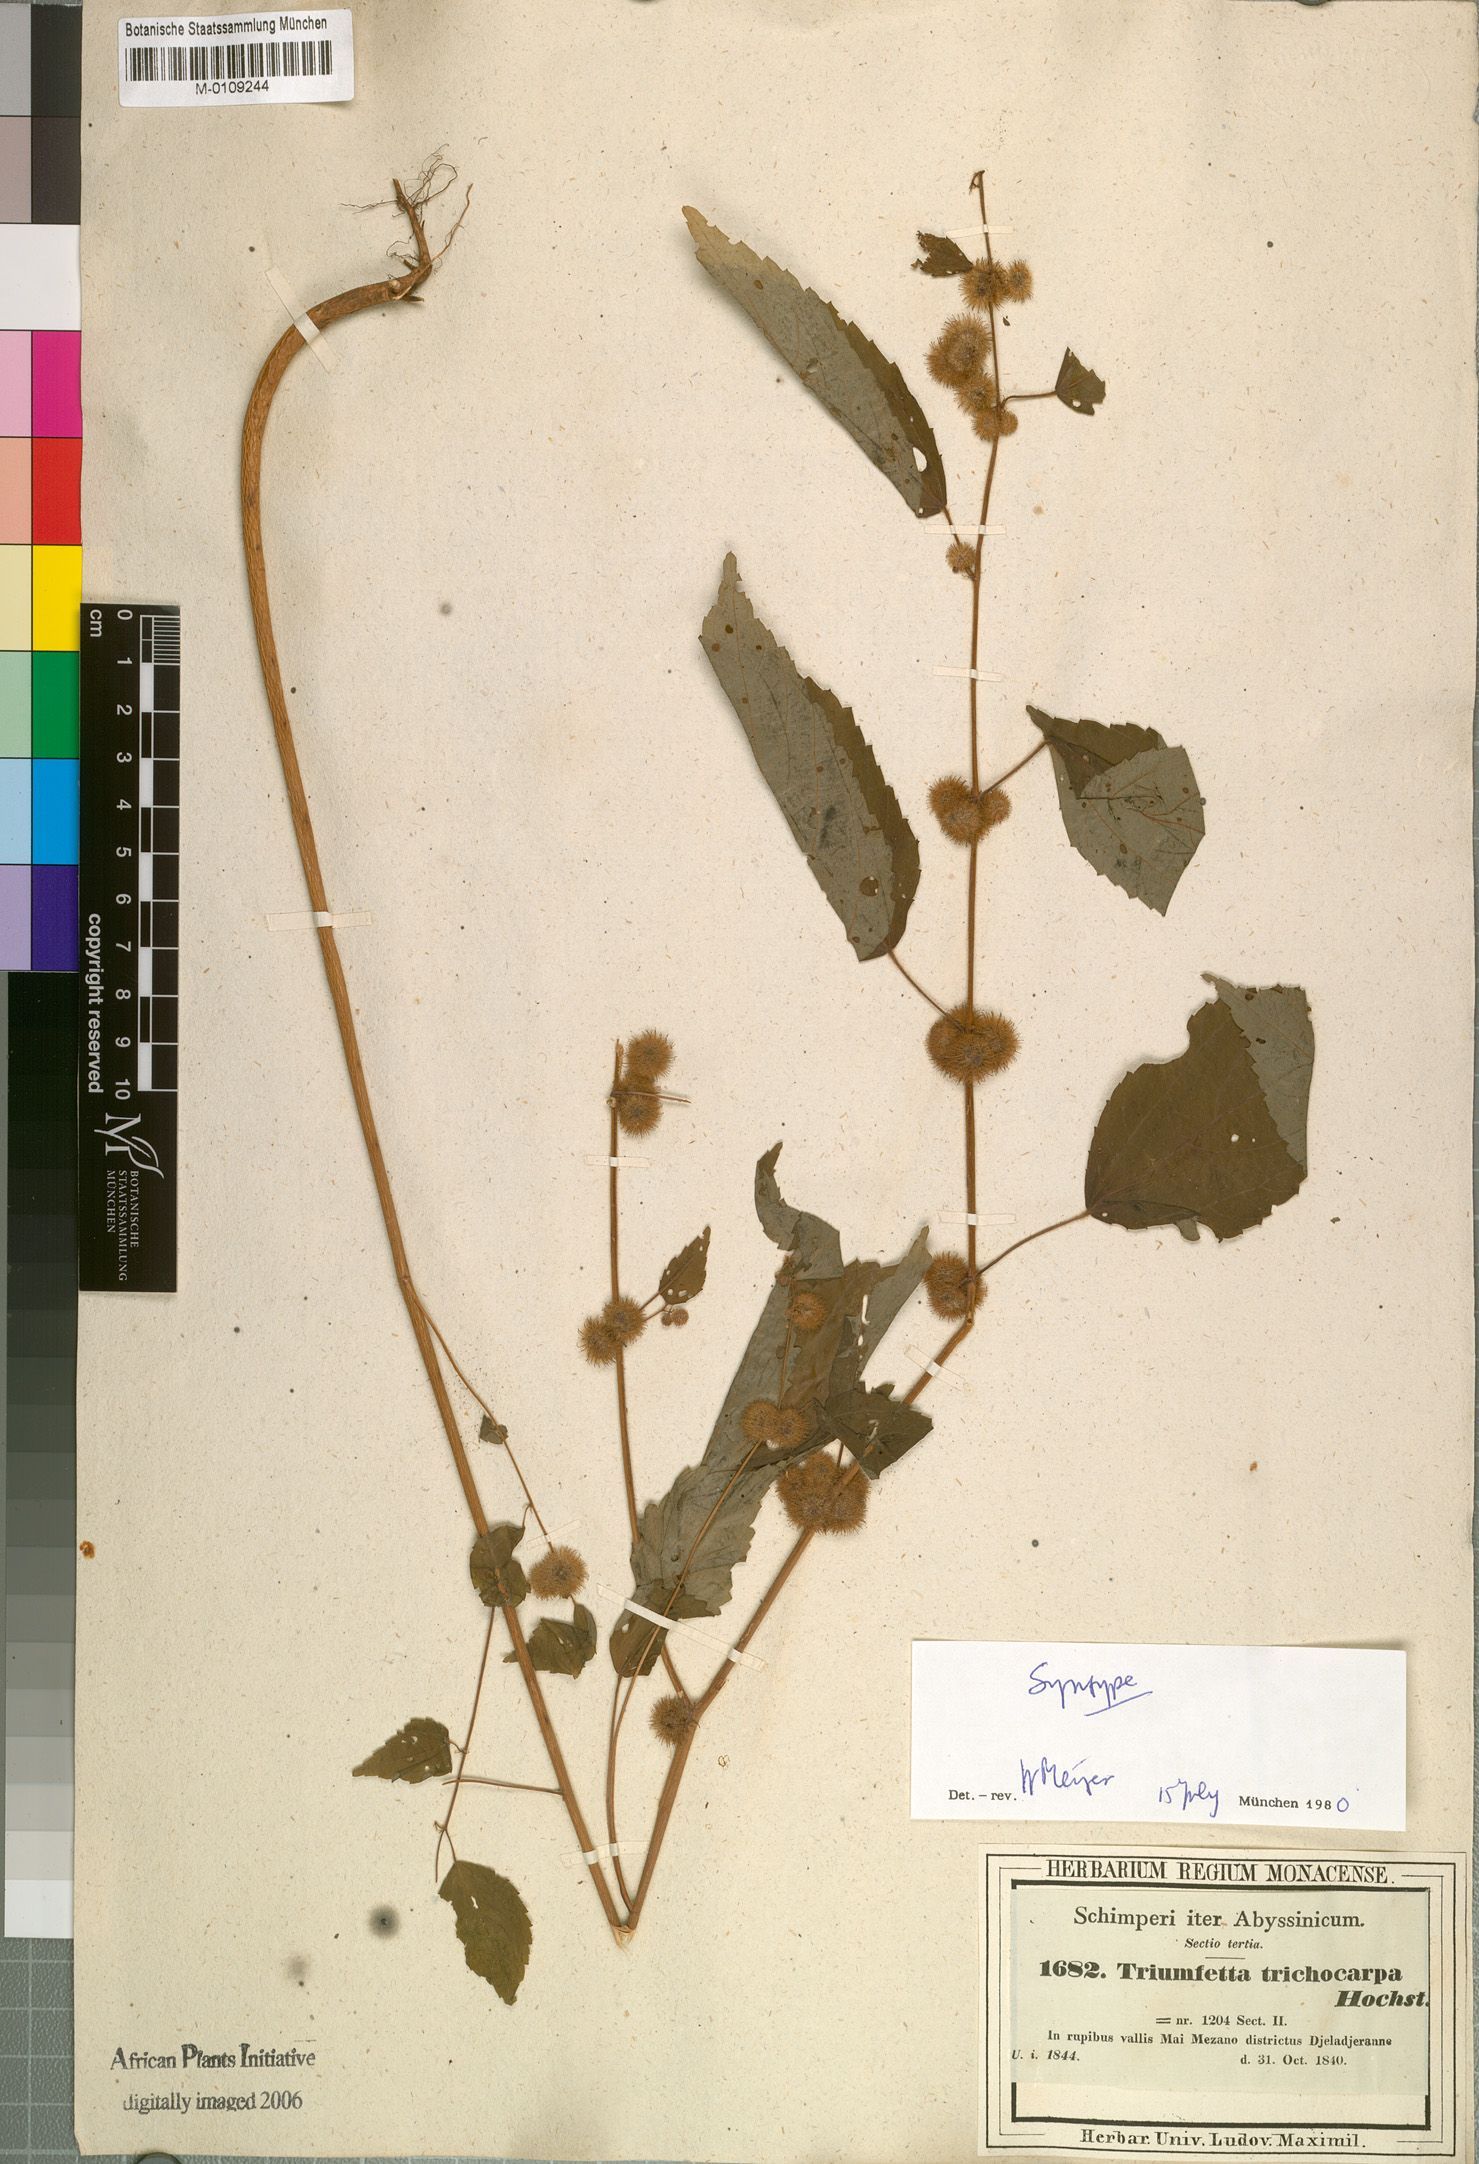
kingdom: Plantae
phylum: Tracheophyta
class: Magnoliopsida
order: Malvales
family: Malvaceae
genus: Triumfetta
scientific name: Triumfetta trichocarpa
